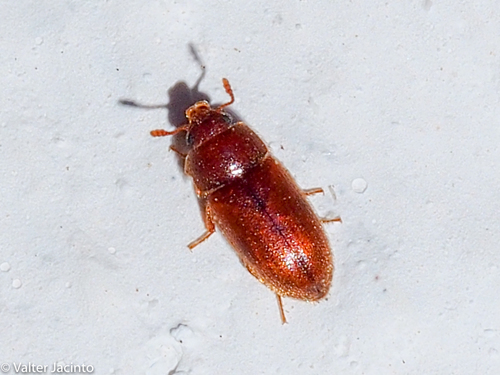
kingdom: Animalia
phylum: Arthropoda
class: Insecta
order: Coleoptera
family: Mycetophagidae
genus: Typhaea
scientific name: Typhaea
